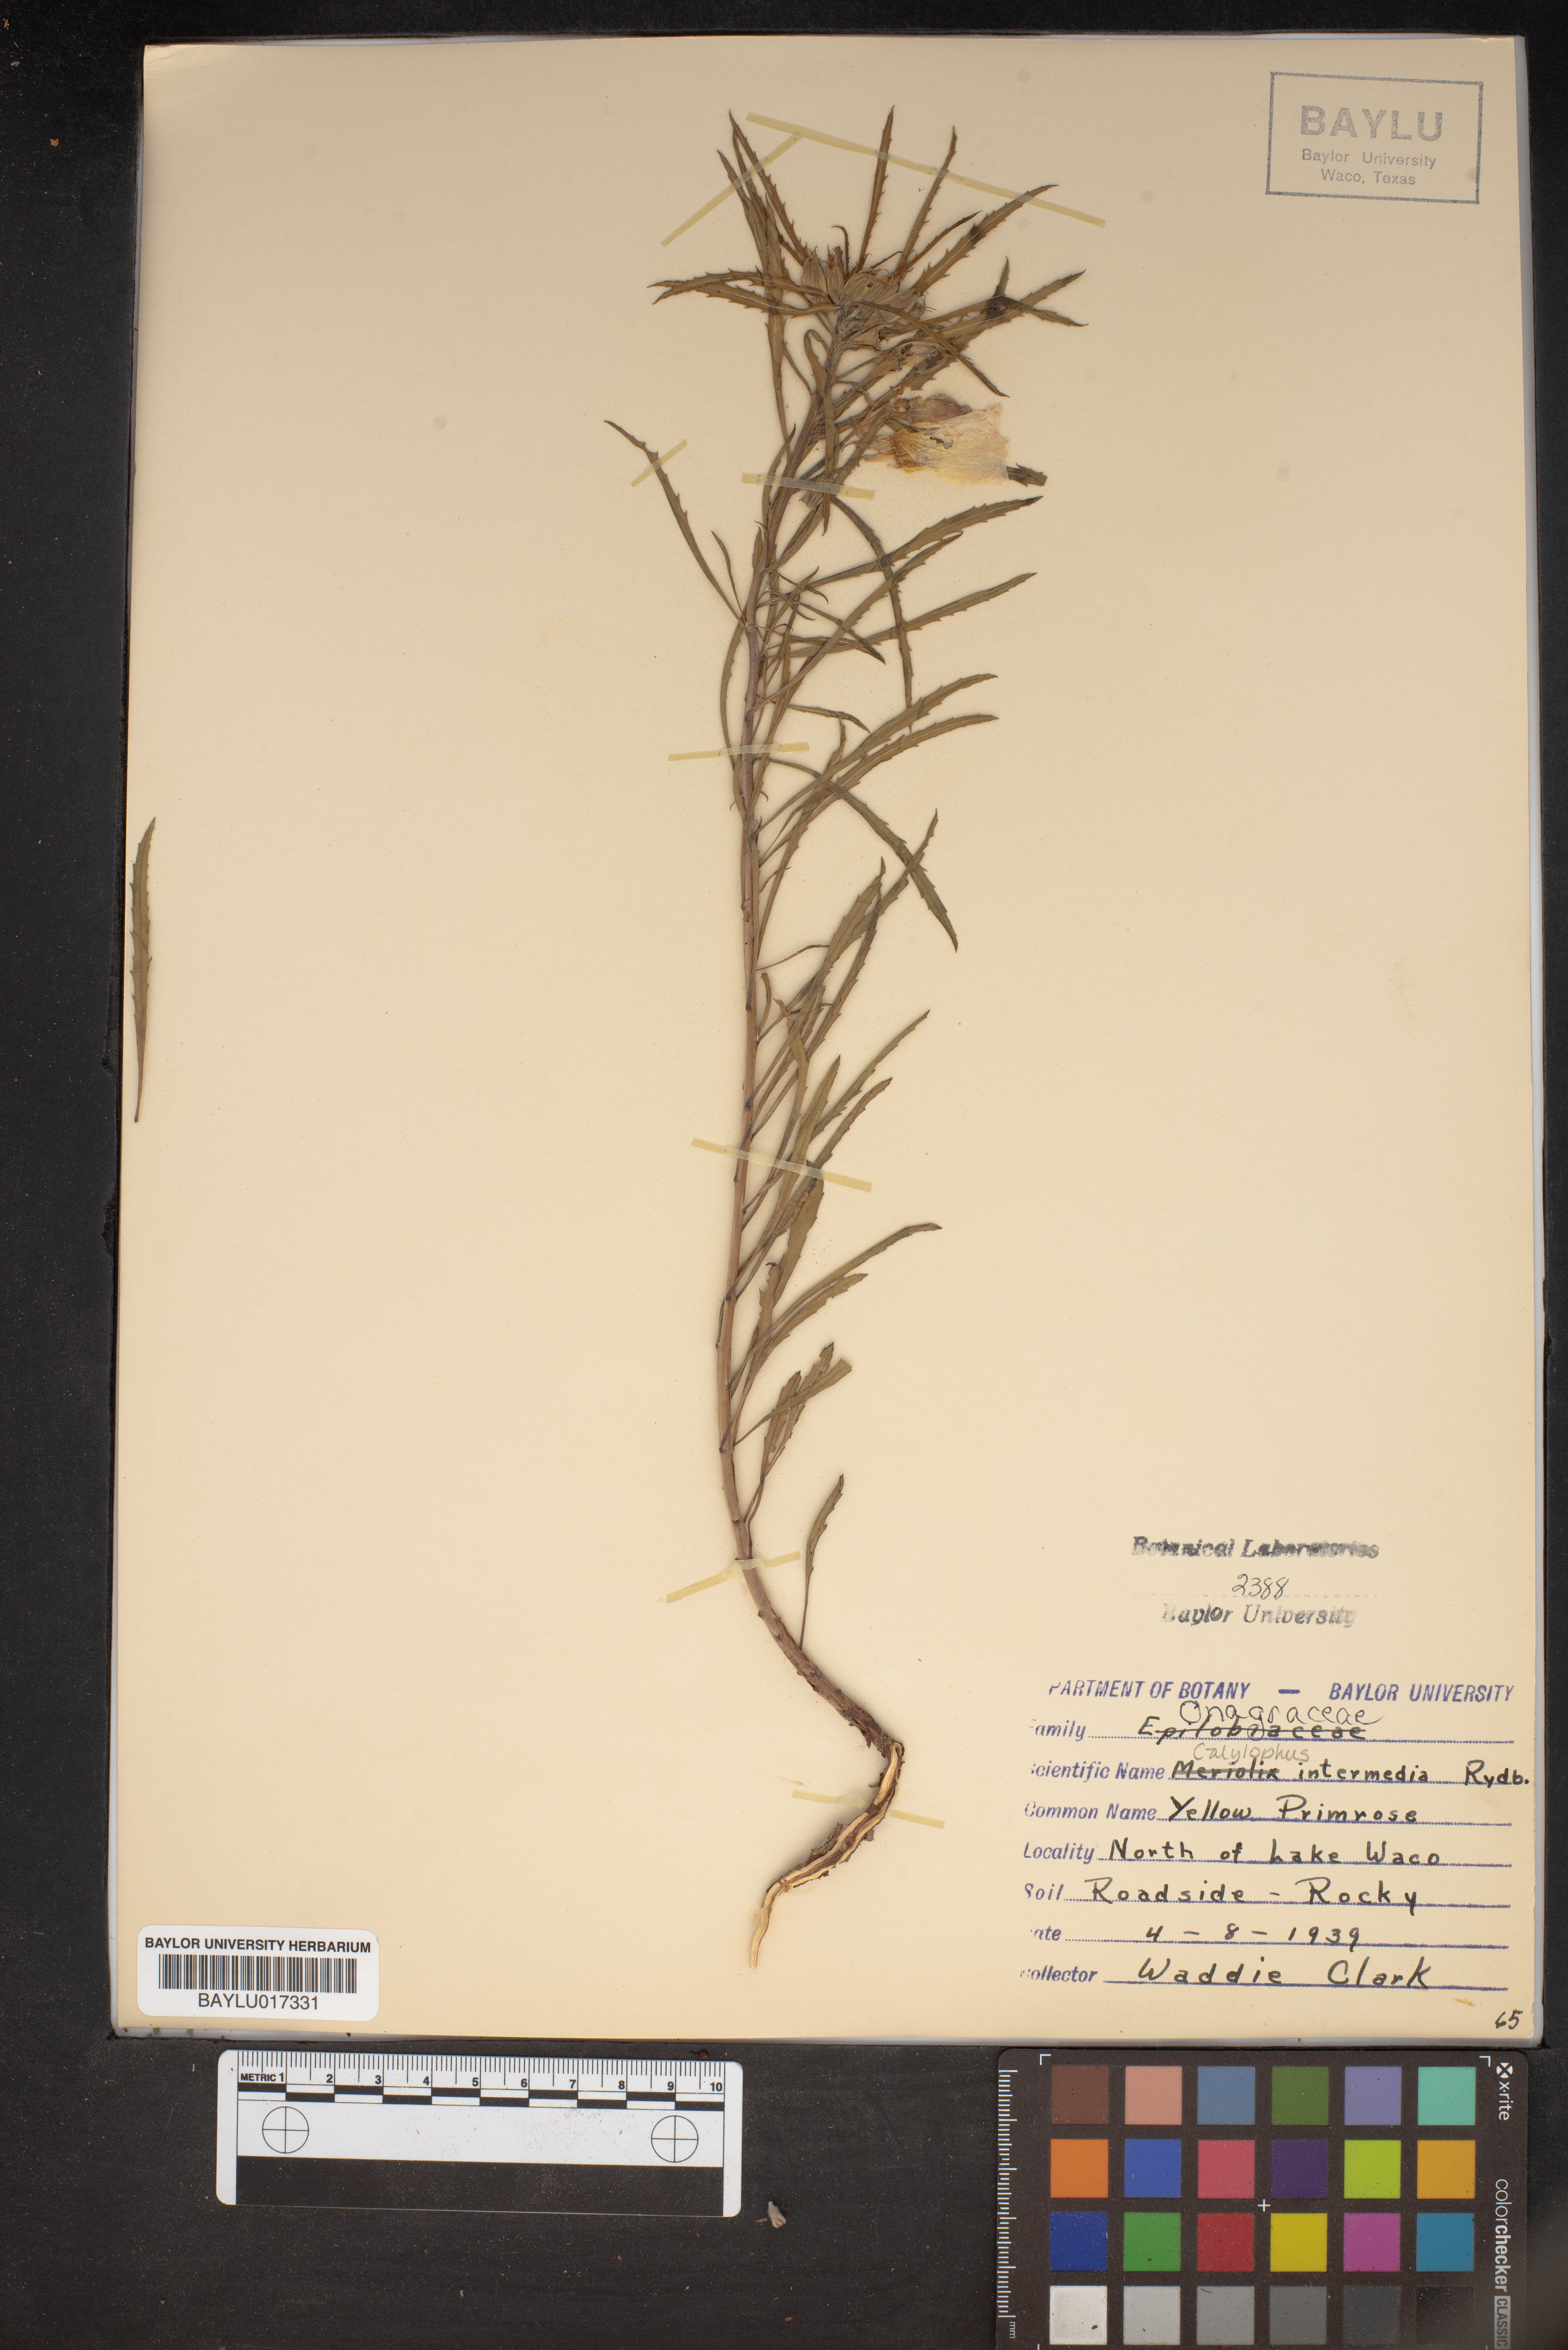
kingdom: Plantae
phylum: Tracheophyta
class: Magnoliopsida
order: Myrtales
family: Onagraceae
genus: Oenothera
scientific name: Oenothera
